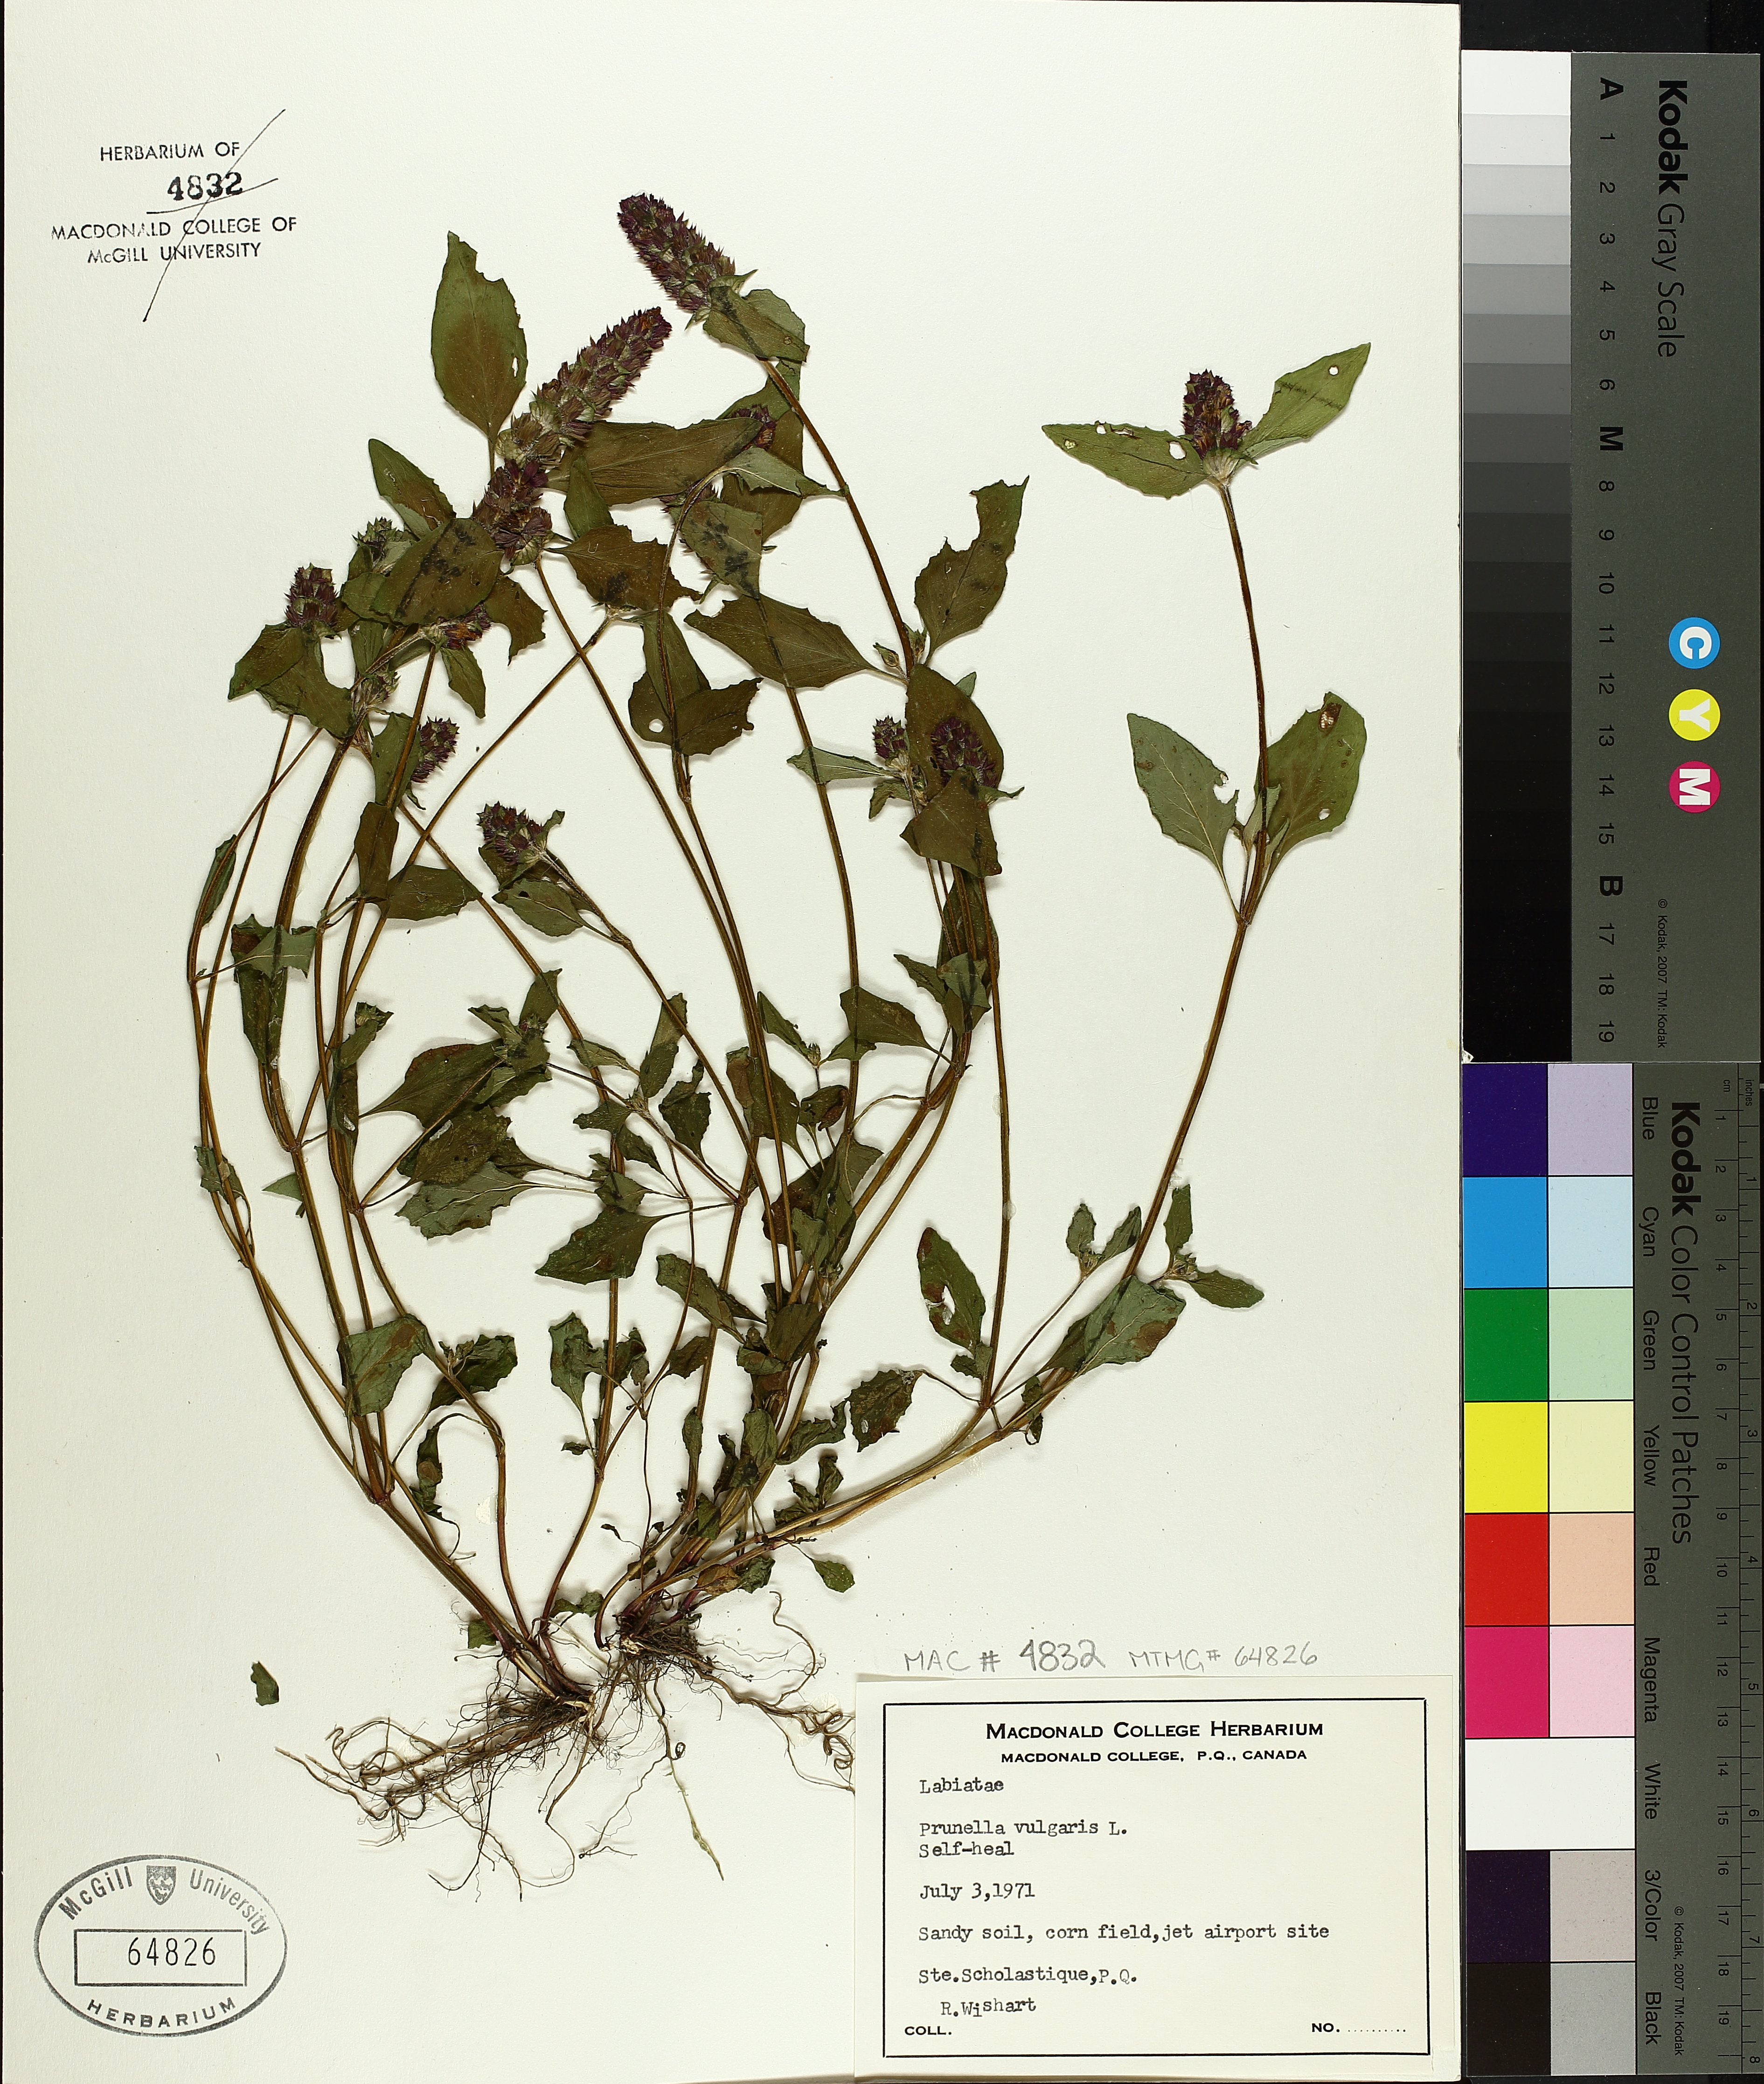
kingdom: Plantae
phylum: Tracheophyta
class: Magnoliopsida
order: Lamiales
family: Lamiaceae
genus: Prunella
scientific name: Prunella vulgaris
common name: Heal-all
